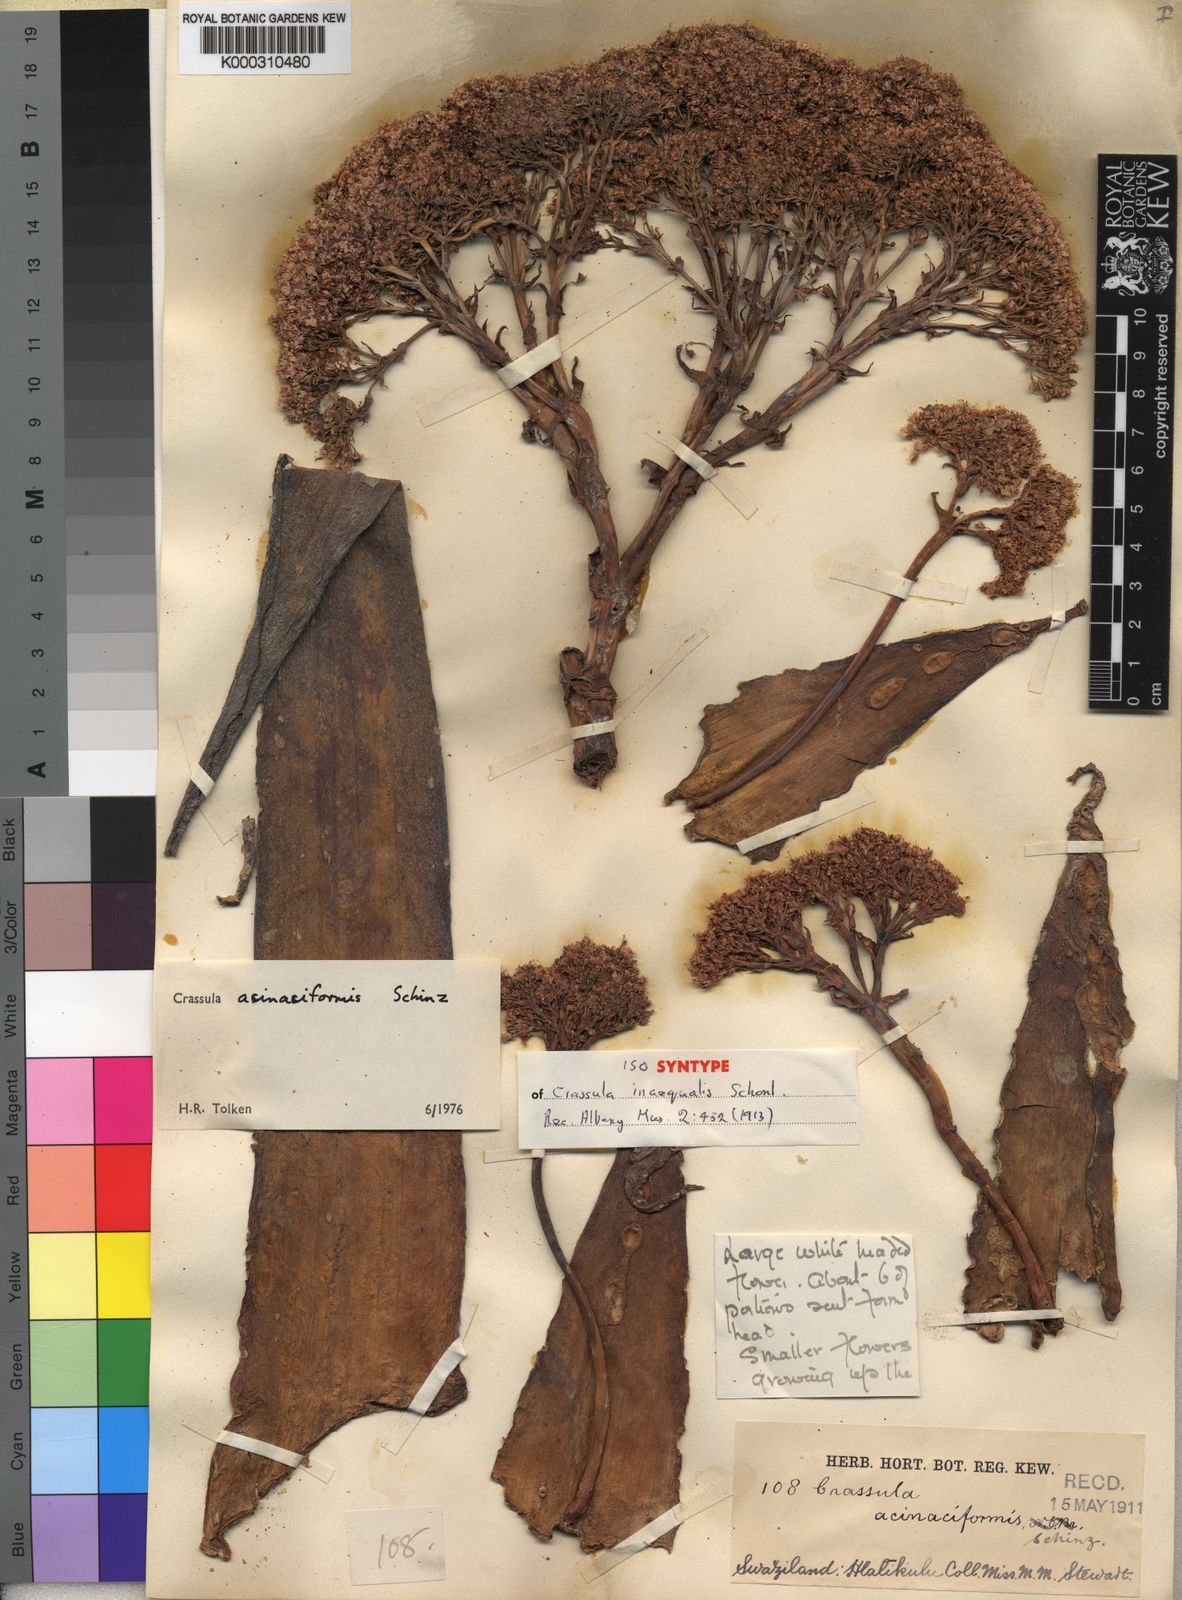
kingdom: Plantae
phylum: Tracheophyta
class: Magnoliopsida
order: Saxifragales
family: Crassulaceae
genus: Crassula
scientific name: Crassula acinaciformis
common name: Giant crassula
